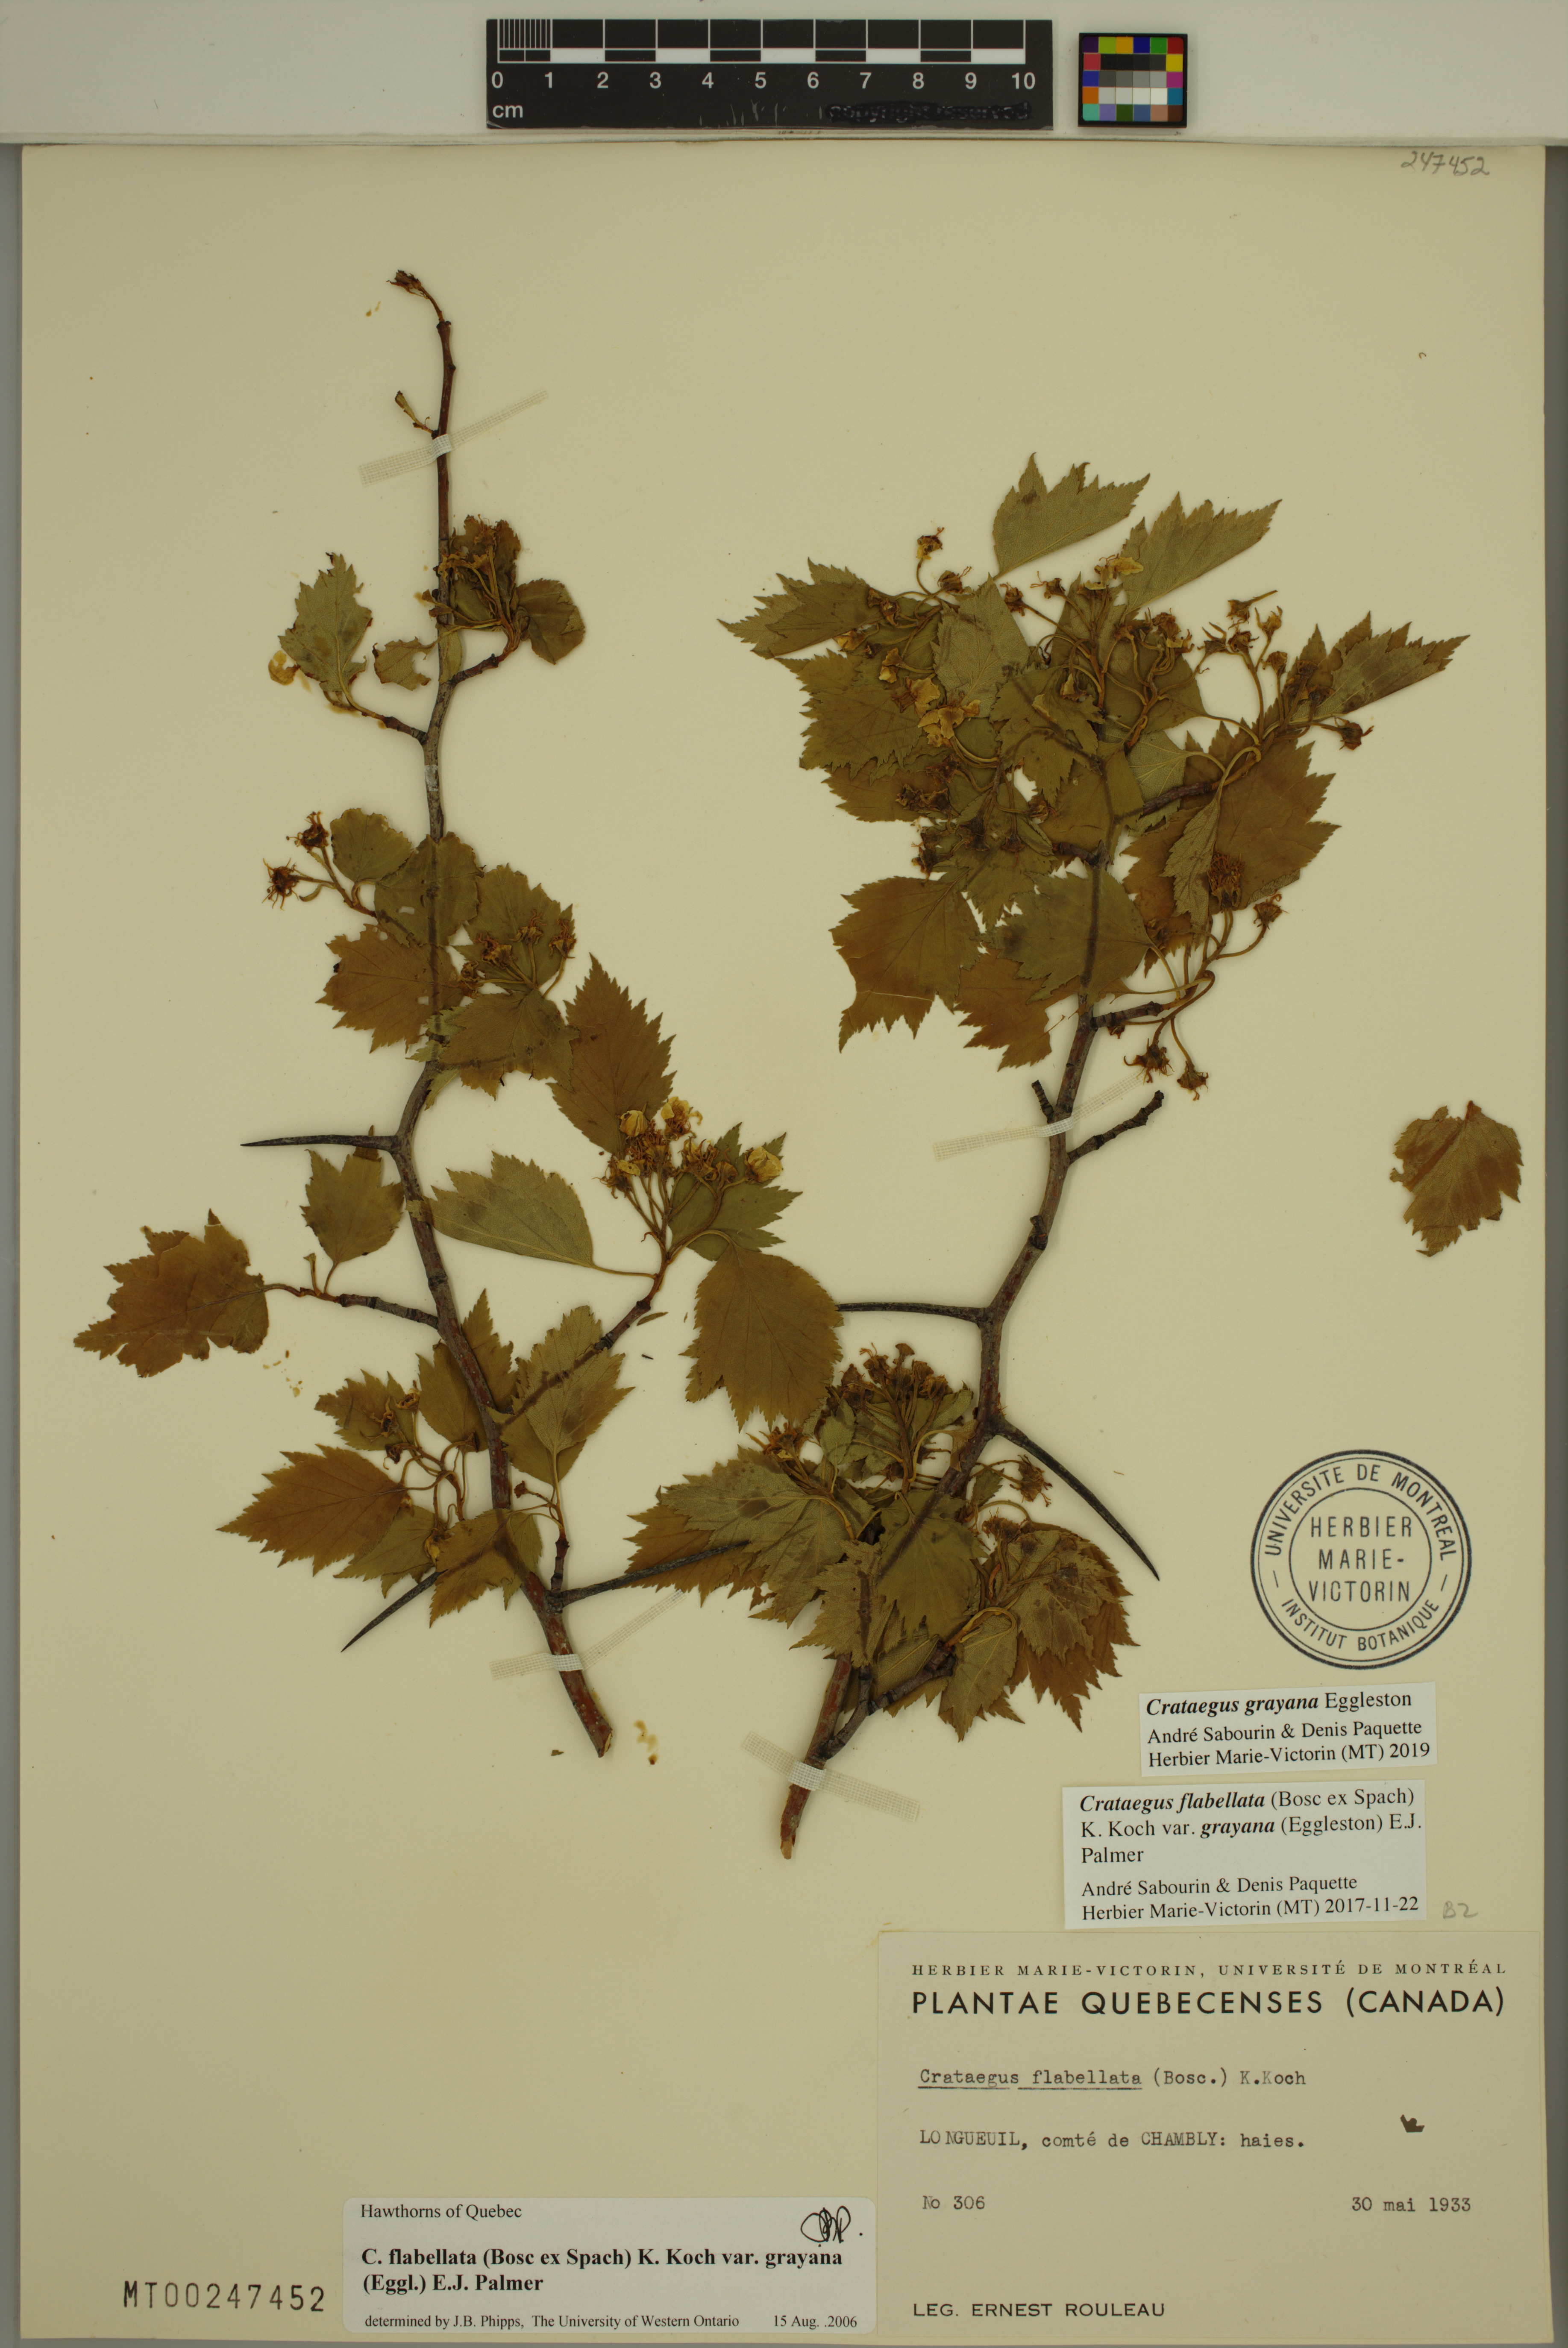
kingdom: Plantae
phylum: Tracheophyta
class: Magnoliopsida
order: Rosales
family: Rosaceae
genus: Crataegus
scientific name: Crataegus schuettei
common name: Schuette's hawthorn
